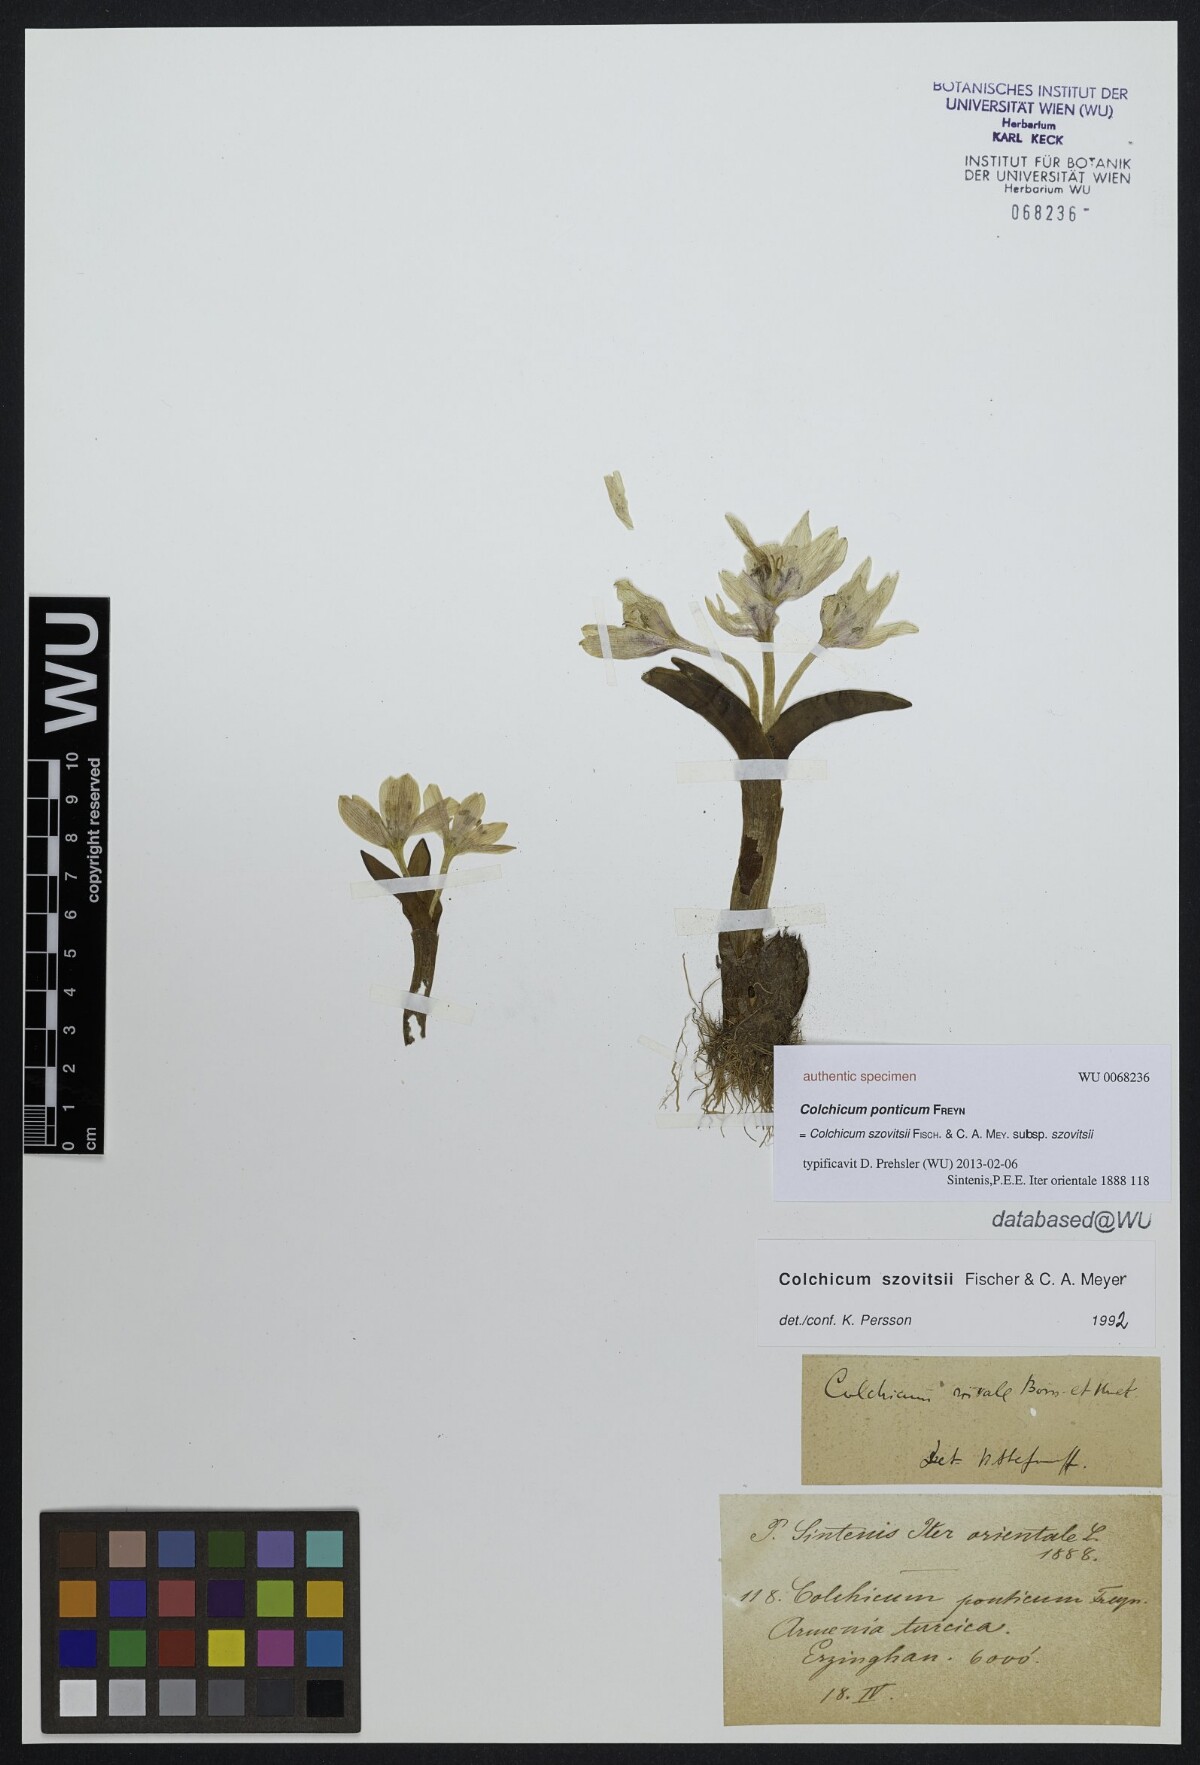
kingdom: Plantae
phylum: Tracheophyta
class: Liliopsida
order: Liliales
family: Colchicaceae
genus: Colchicum
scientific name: Colchicum
